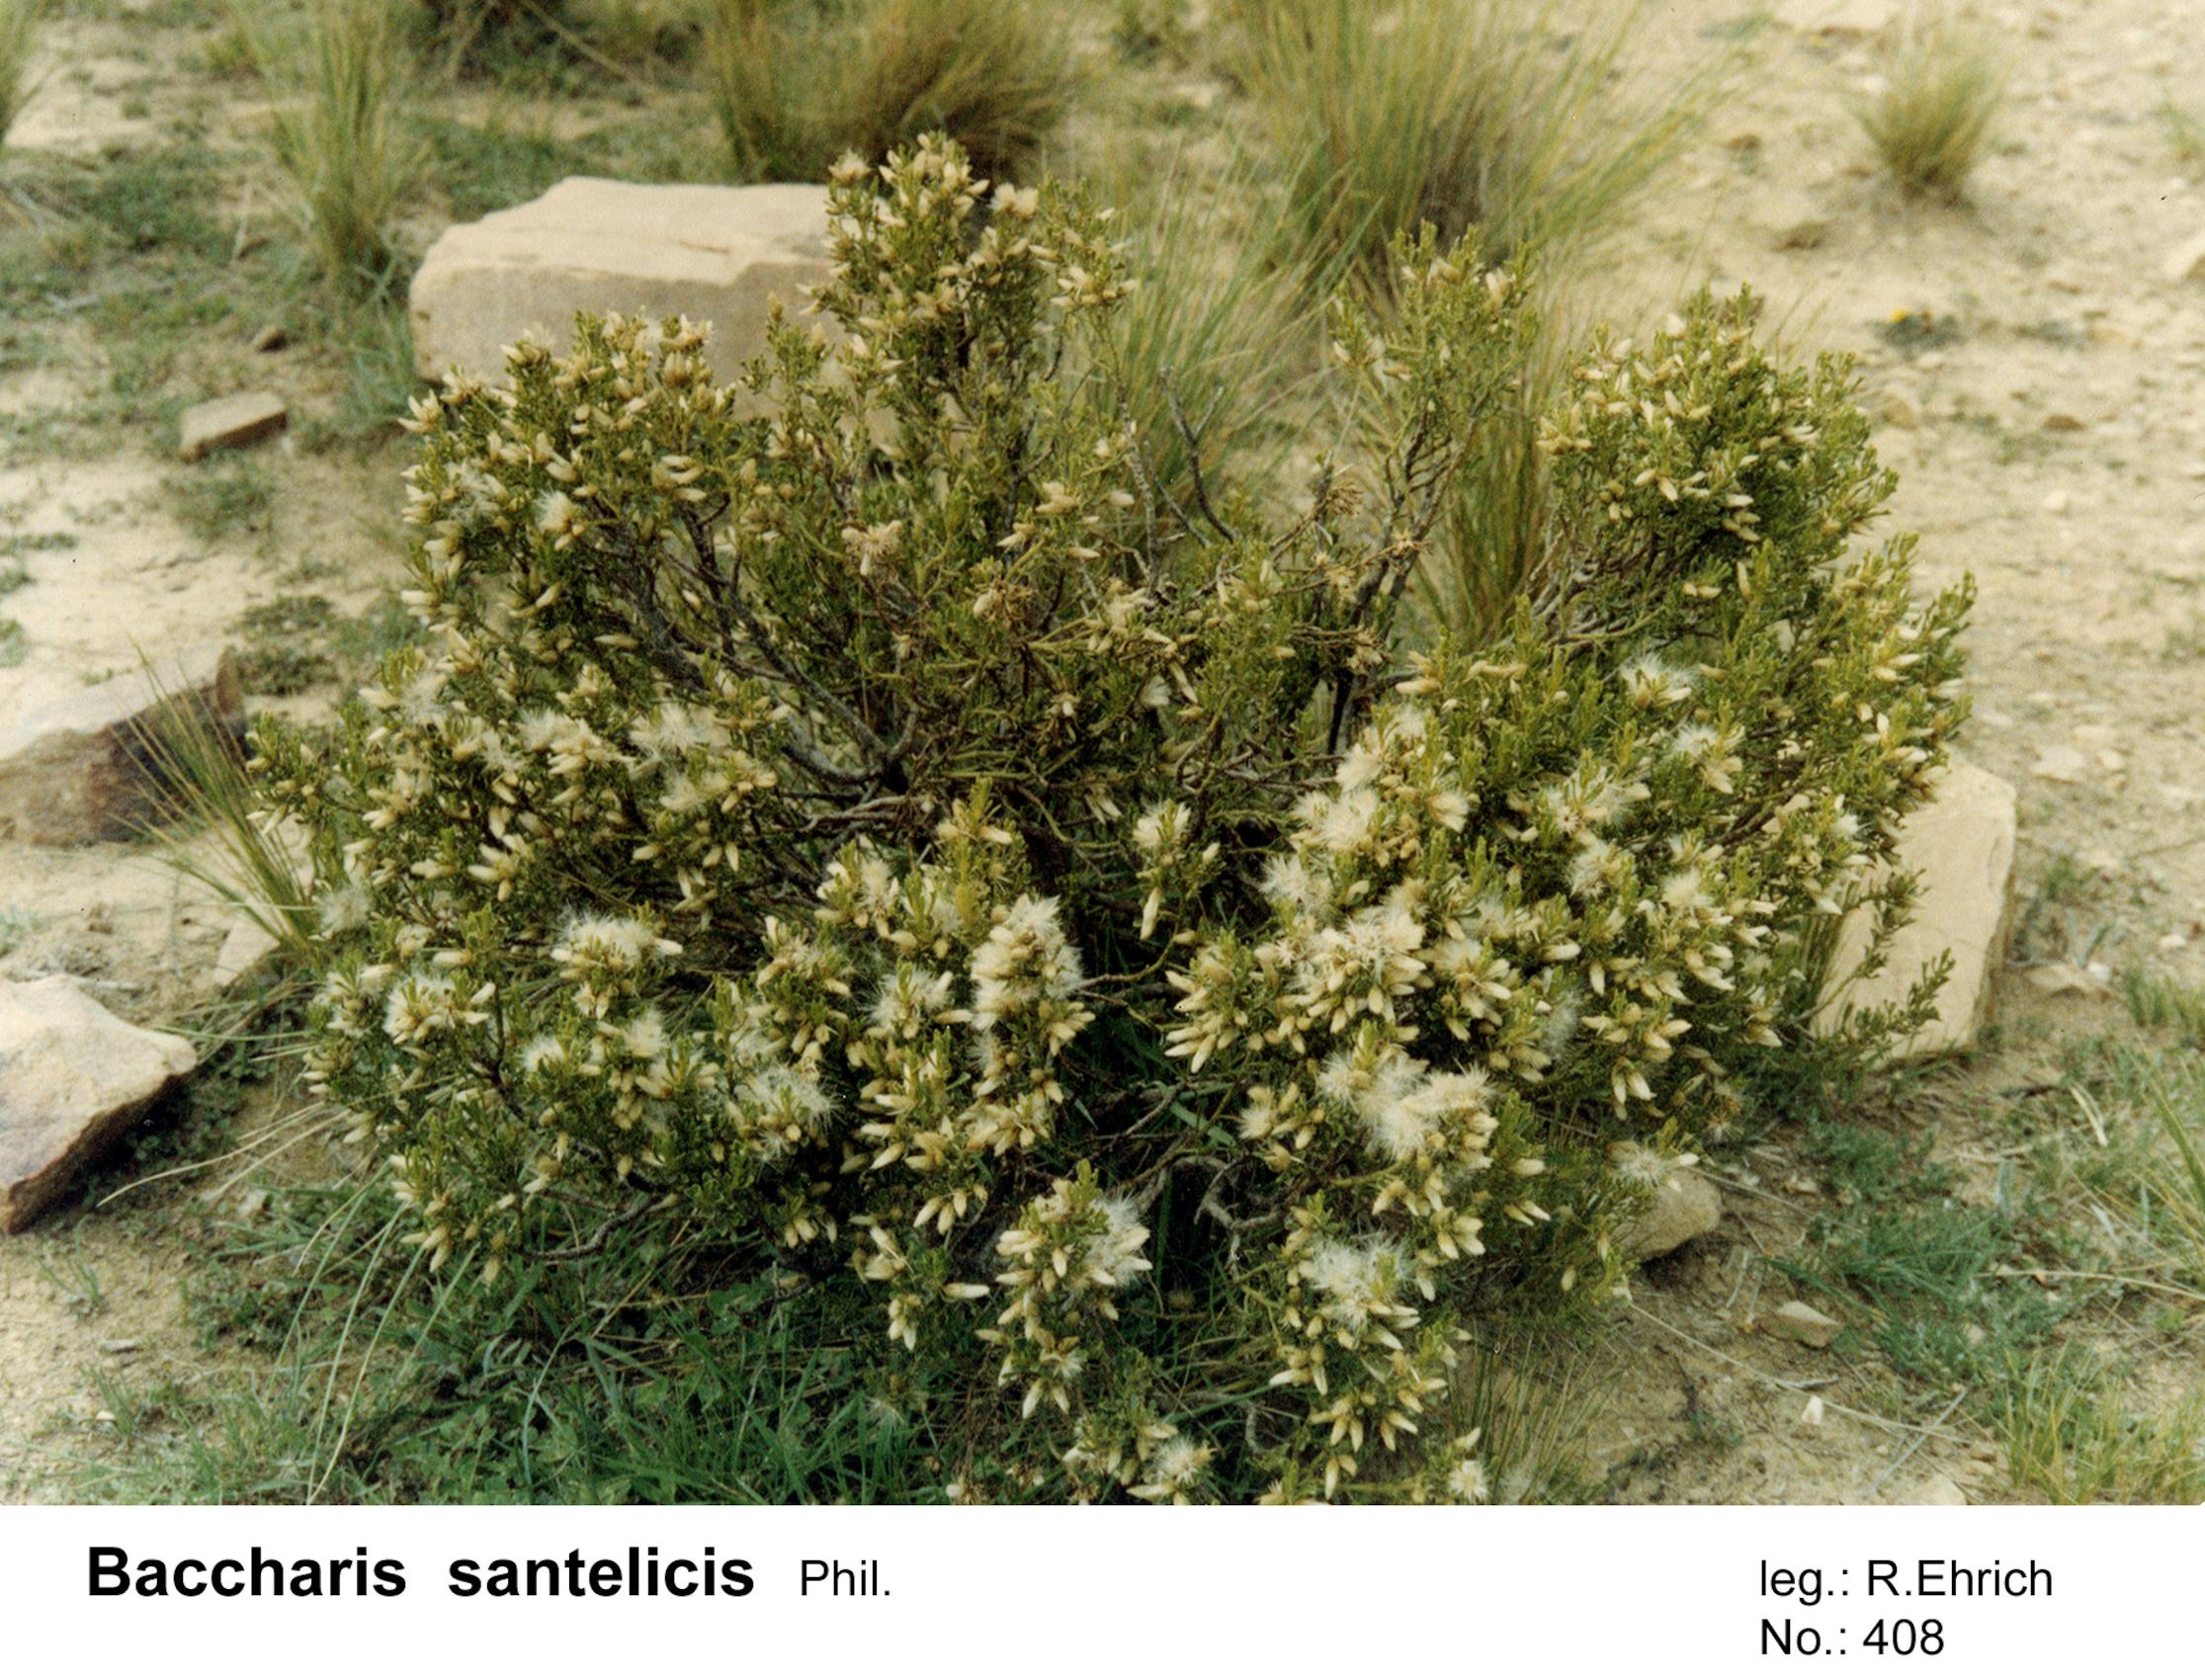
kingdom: Plantae
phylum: Tracheophyta
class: Magnoliopsida
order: Asterales
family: Asteraceae
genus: Baccharis
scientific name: Baccharis tola
